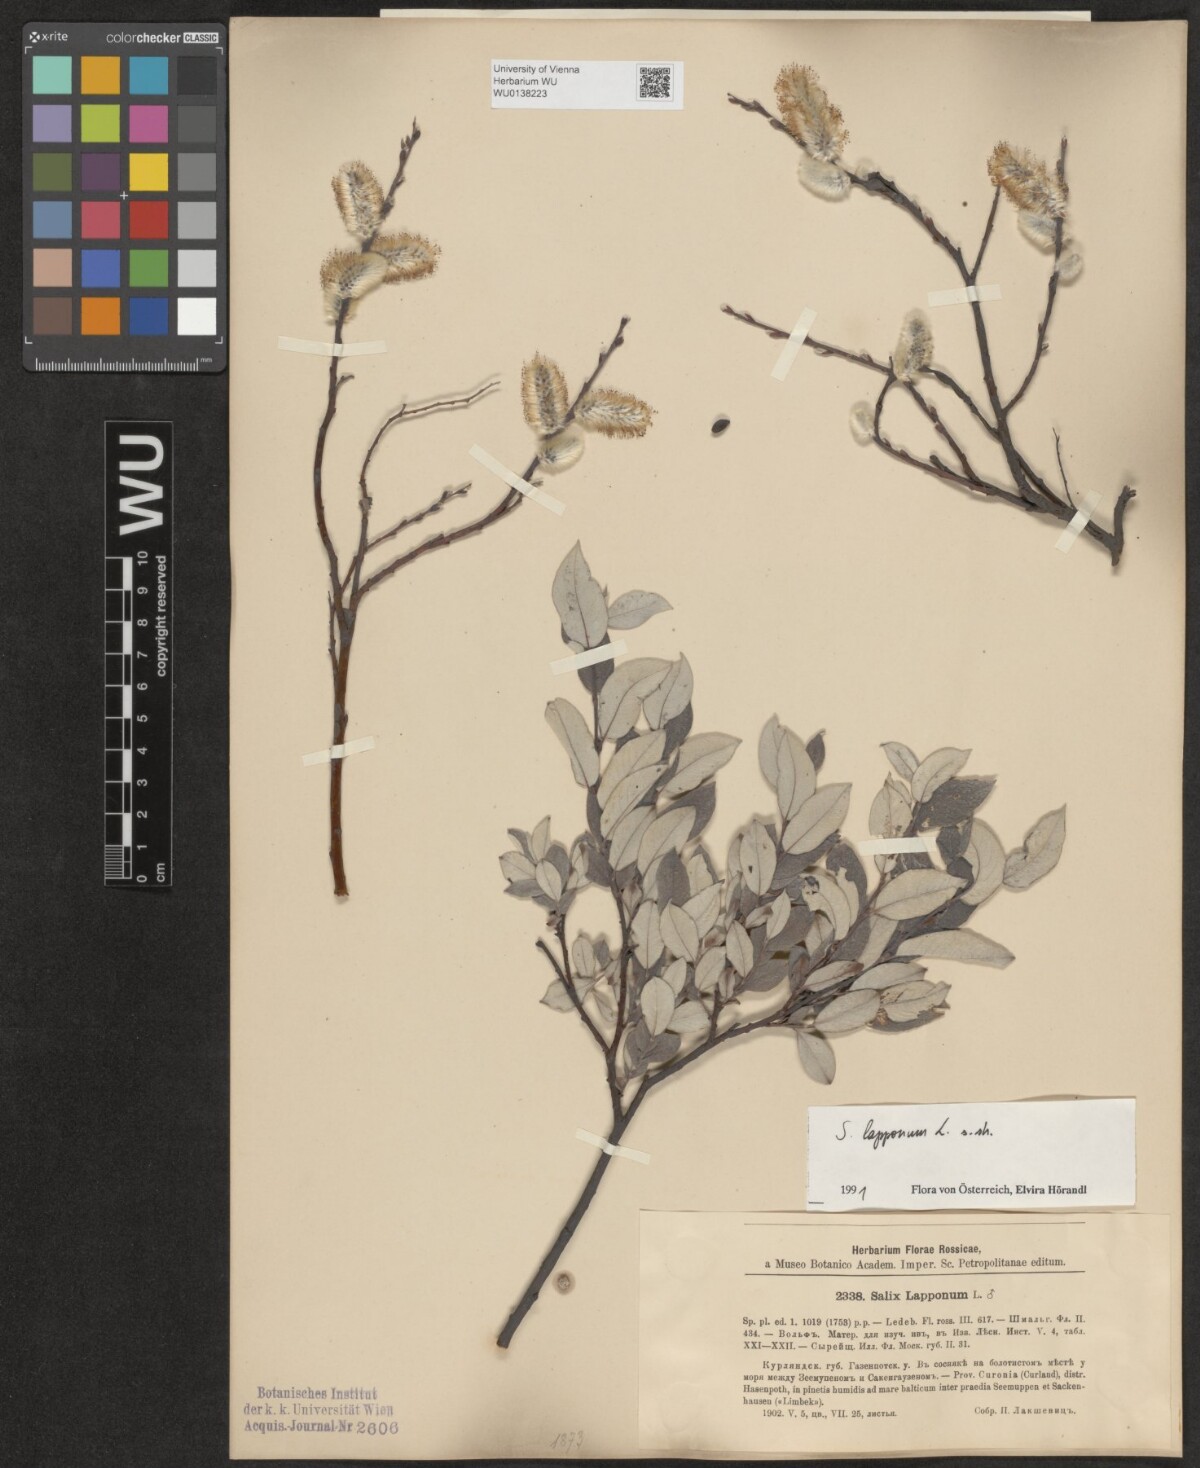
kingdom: Plantae
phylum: Tracheophyta
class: Magnoliopsida
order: Malpighiales
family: Salicaceae
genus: Salix
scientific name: Salix lapponum
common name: Downy willow
